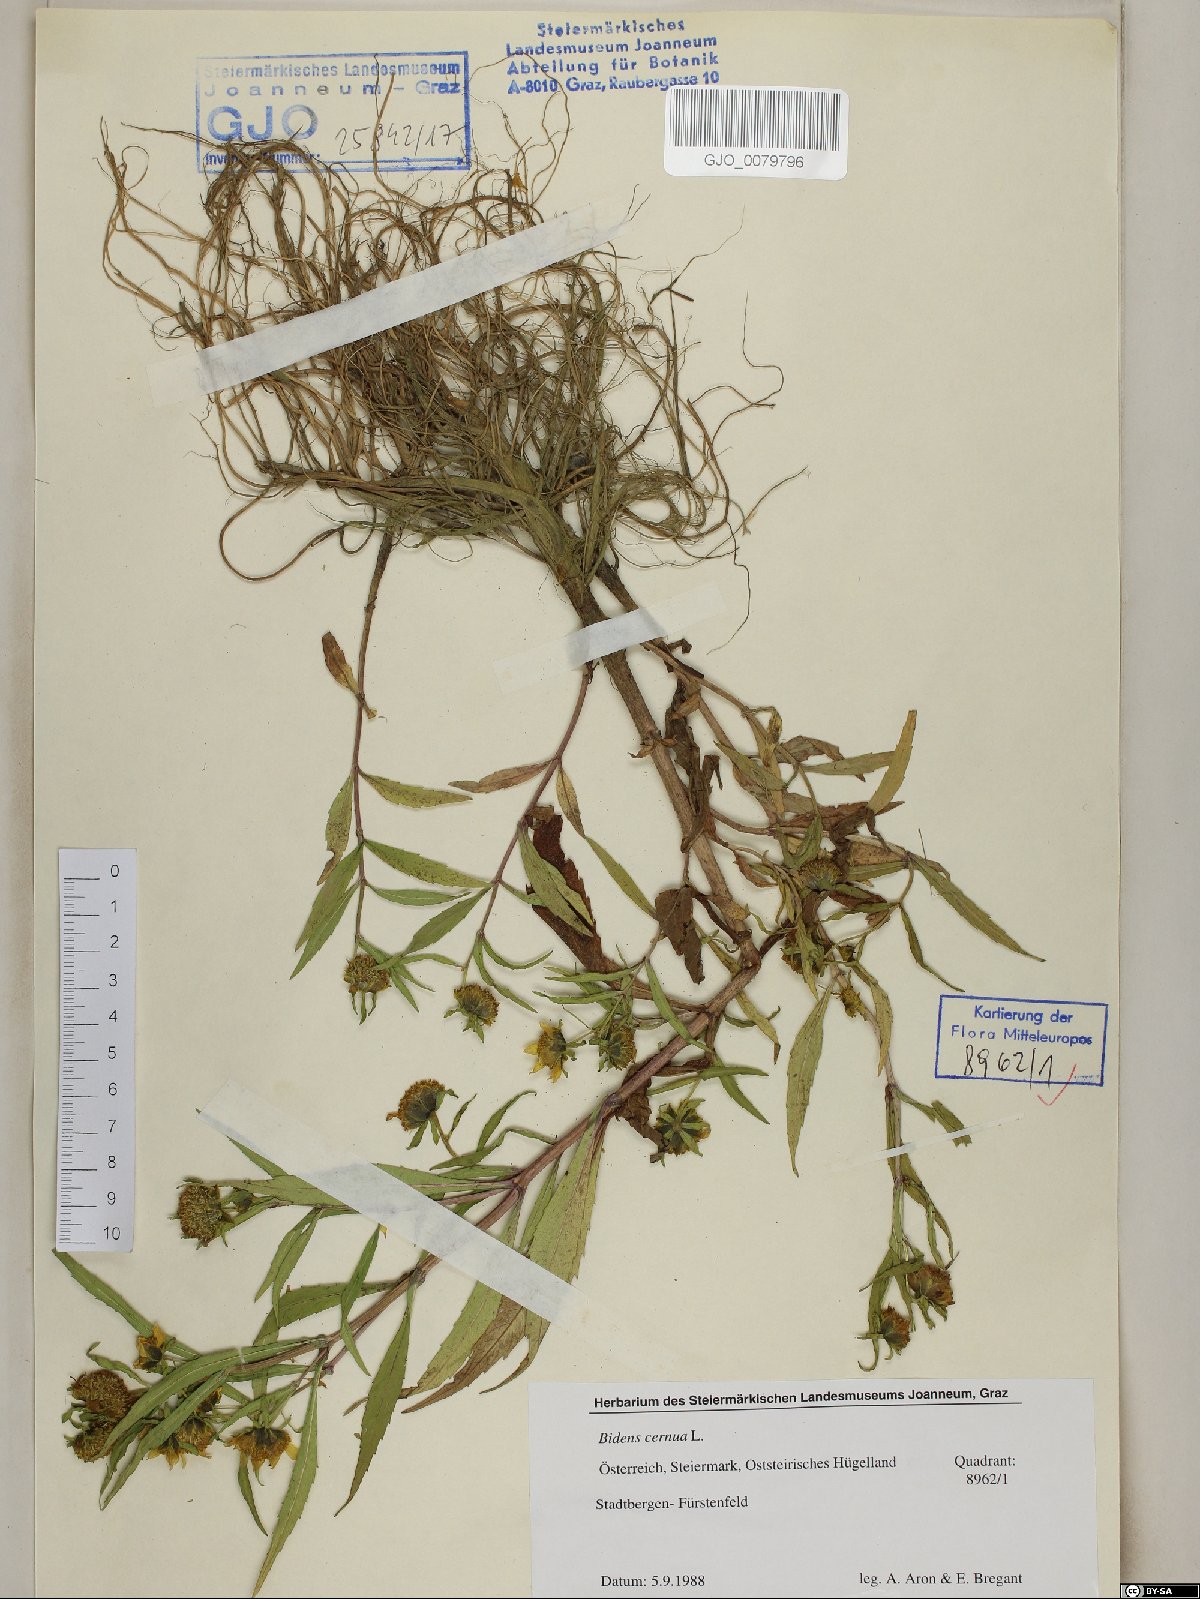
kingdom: Plantae
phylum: Tracheophyta
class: Magnoliopsida
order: Asterales
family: Asteraceae
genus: Bidens
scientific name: Bidens cernua
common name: Nodding bur-marigold
